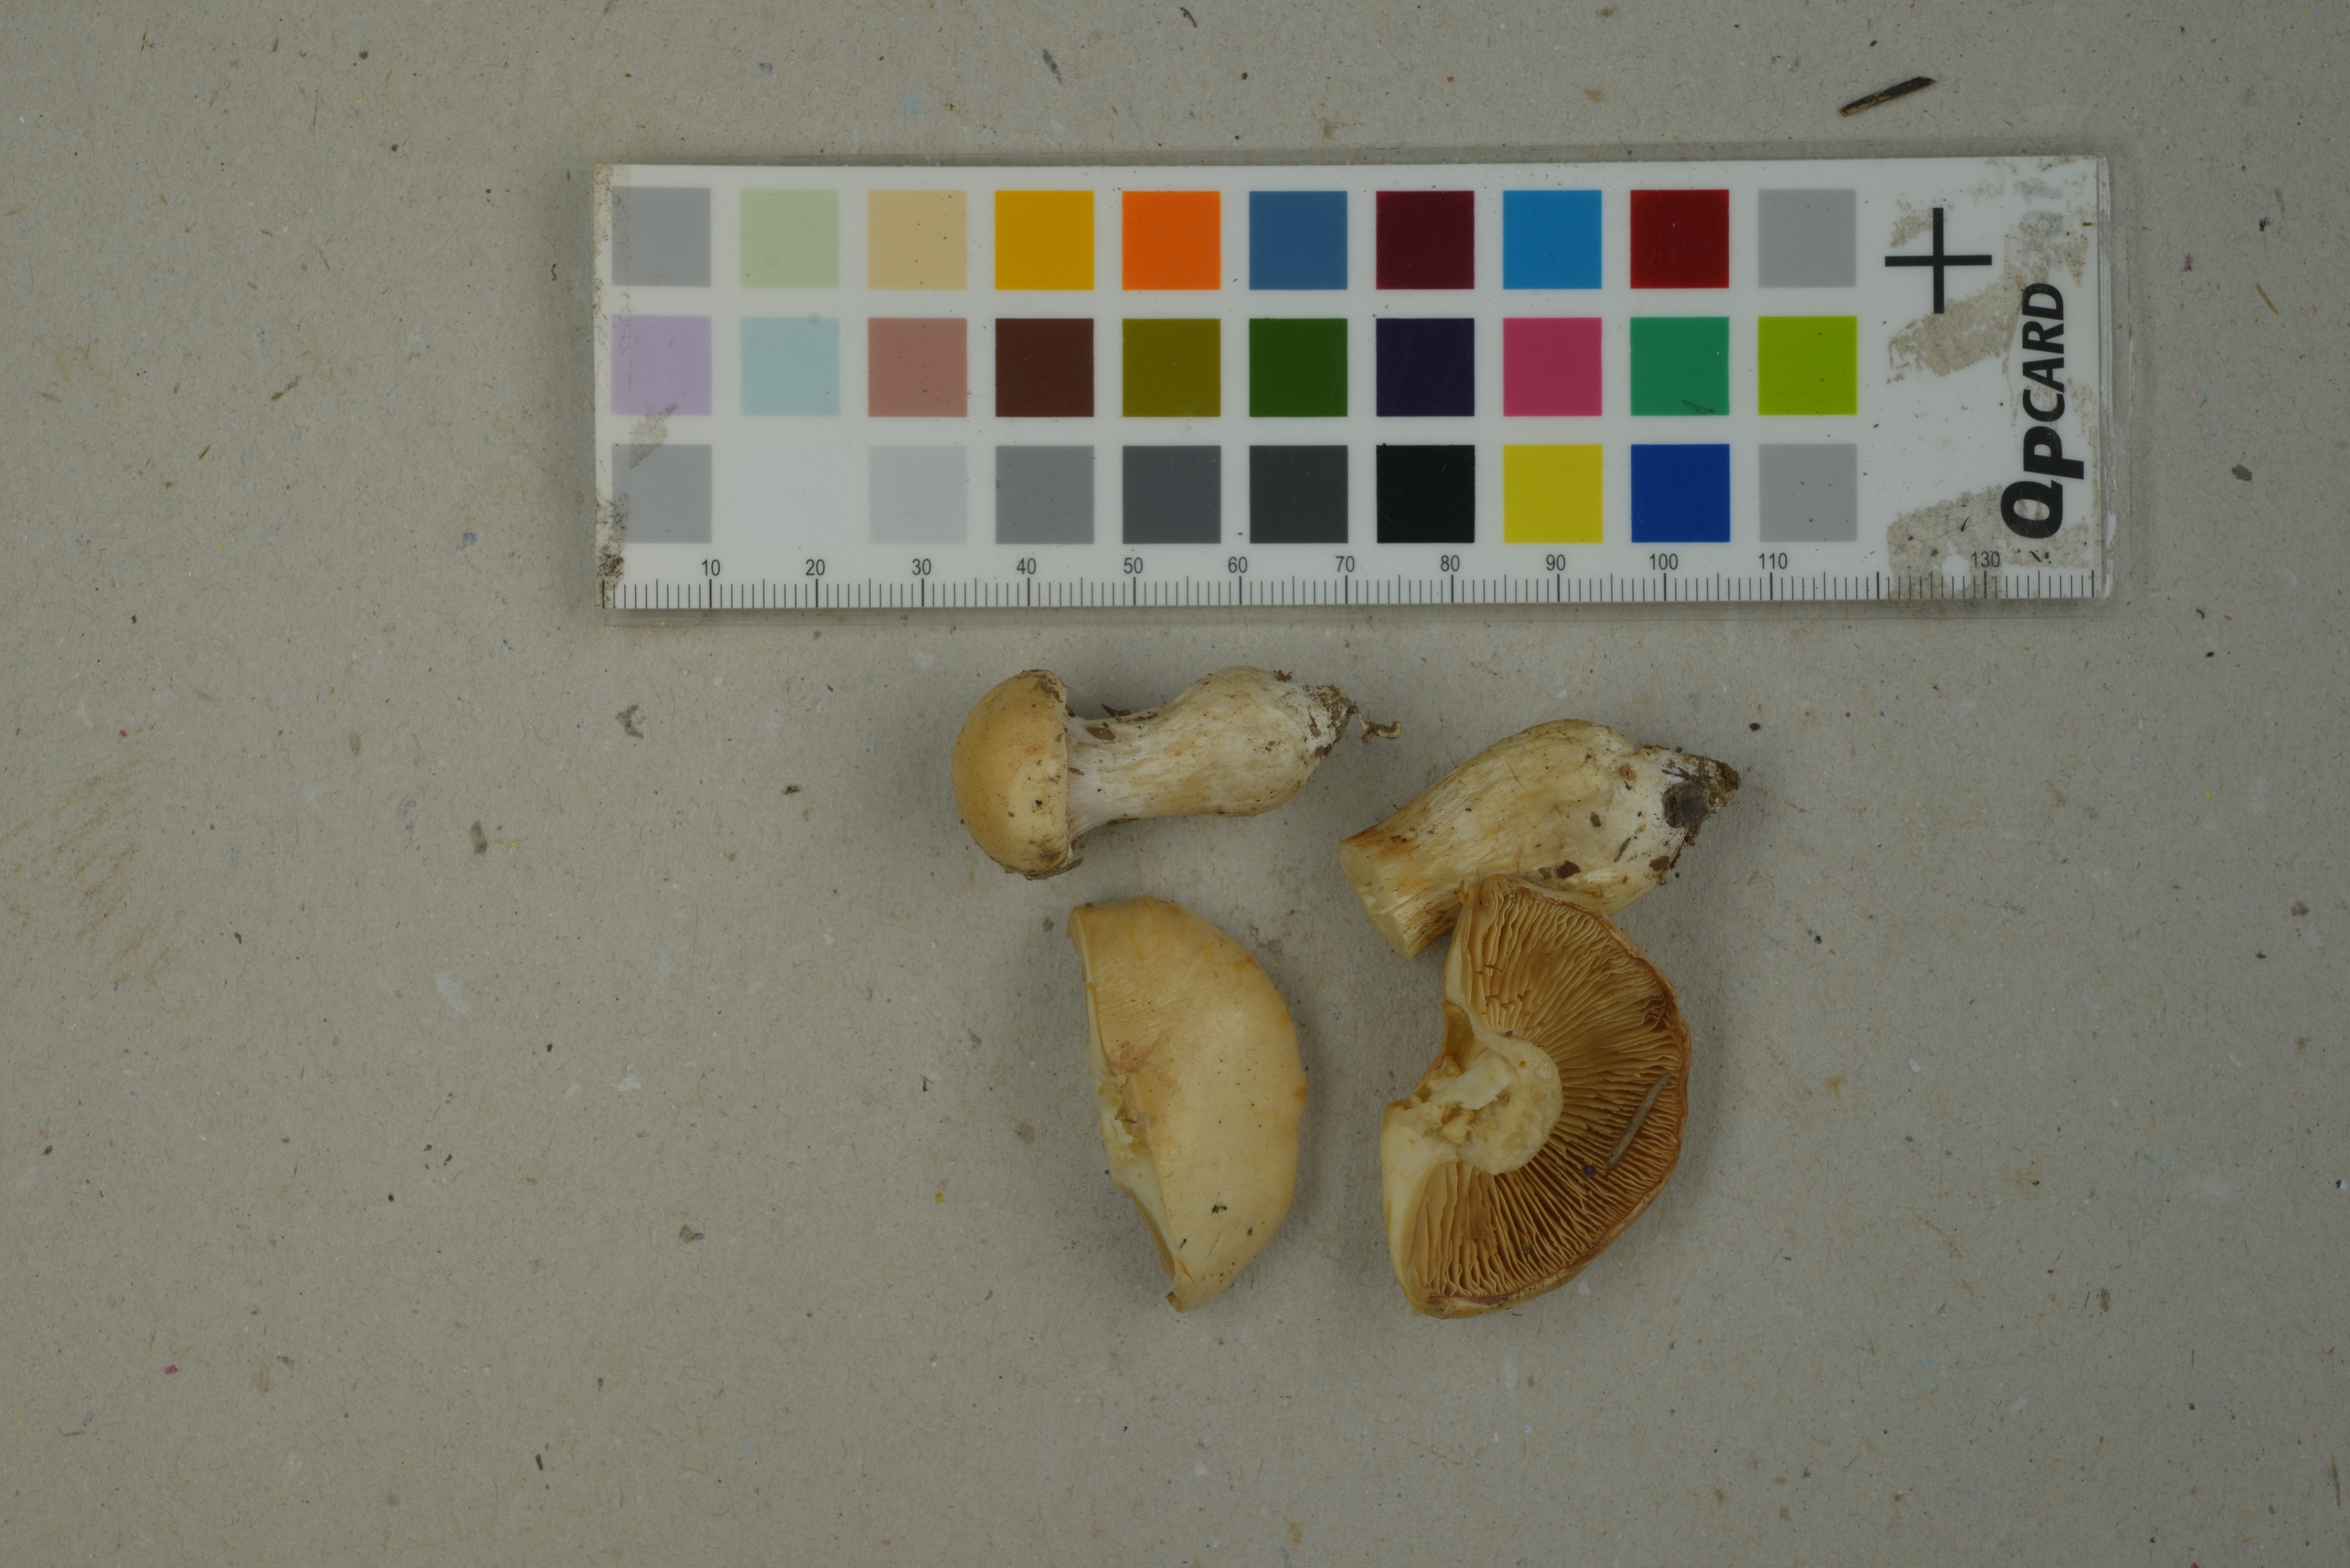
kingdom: Fungi
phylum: Basidiomycota
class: Agaricomycetes
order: Agaricales
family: Cortinariaceae
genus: Thaxterogaster
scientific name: Thaxterogaster barbatus
